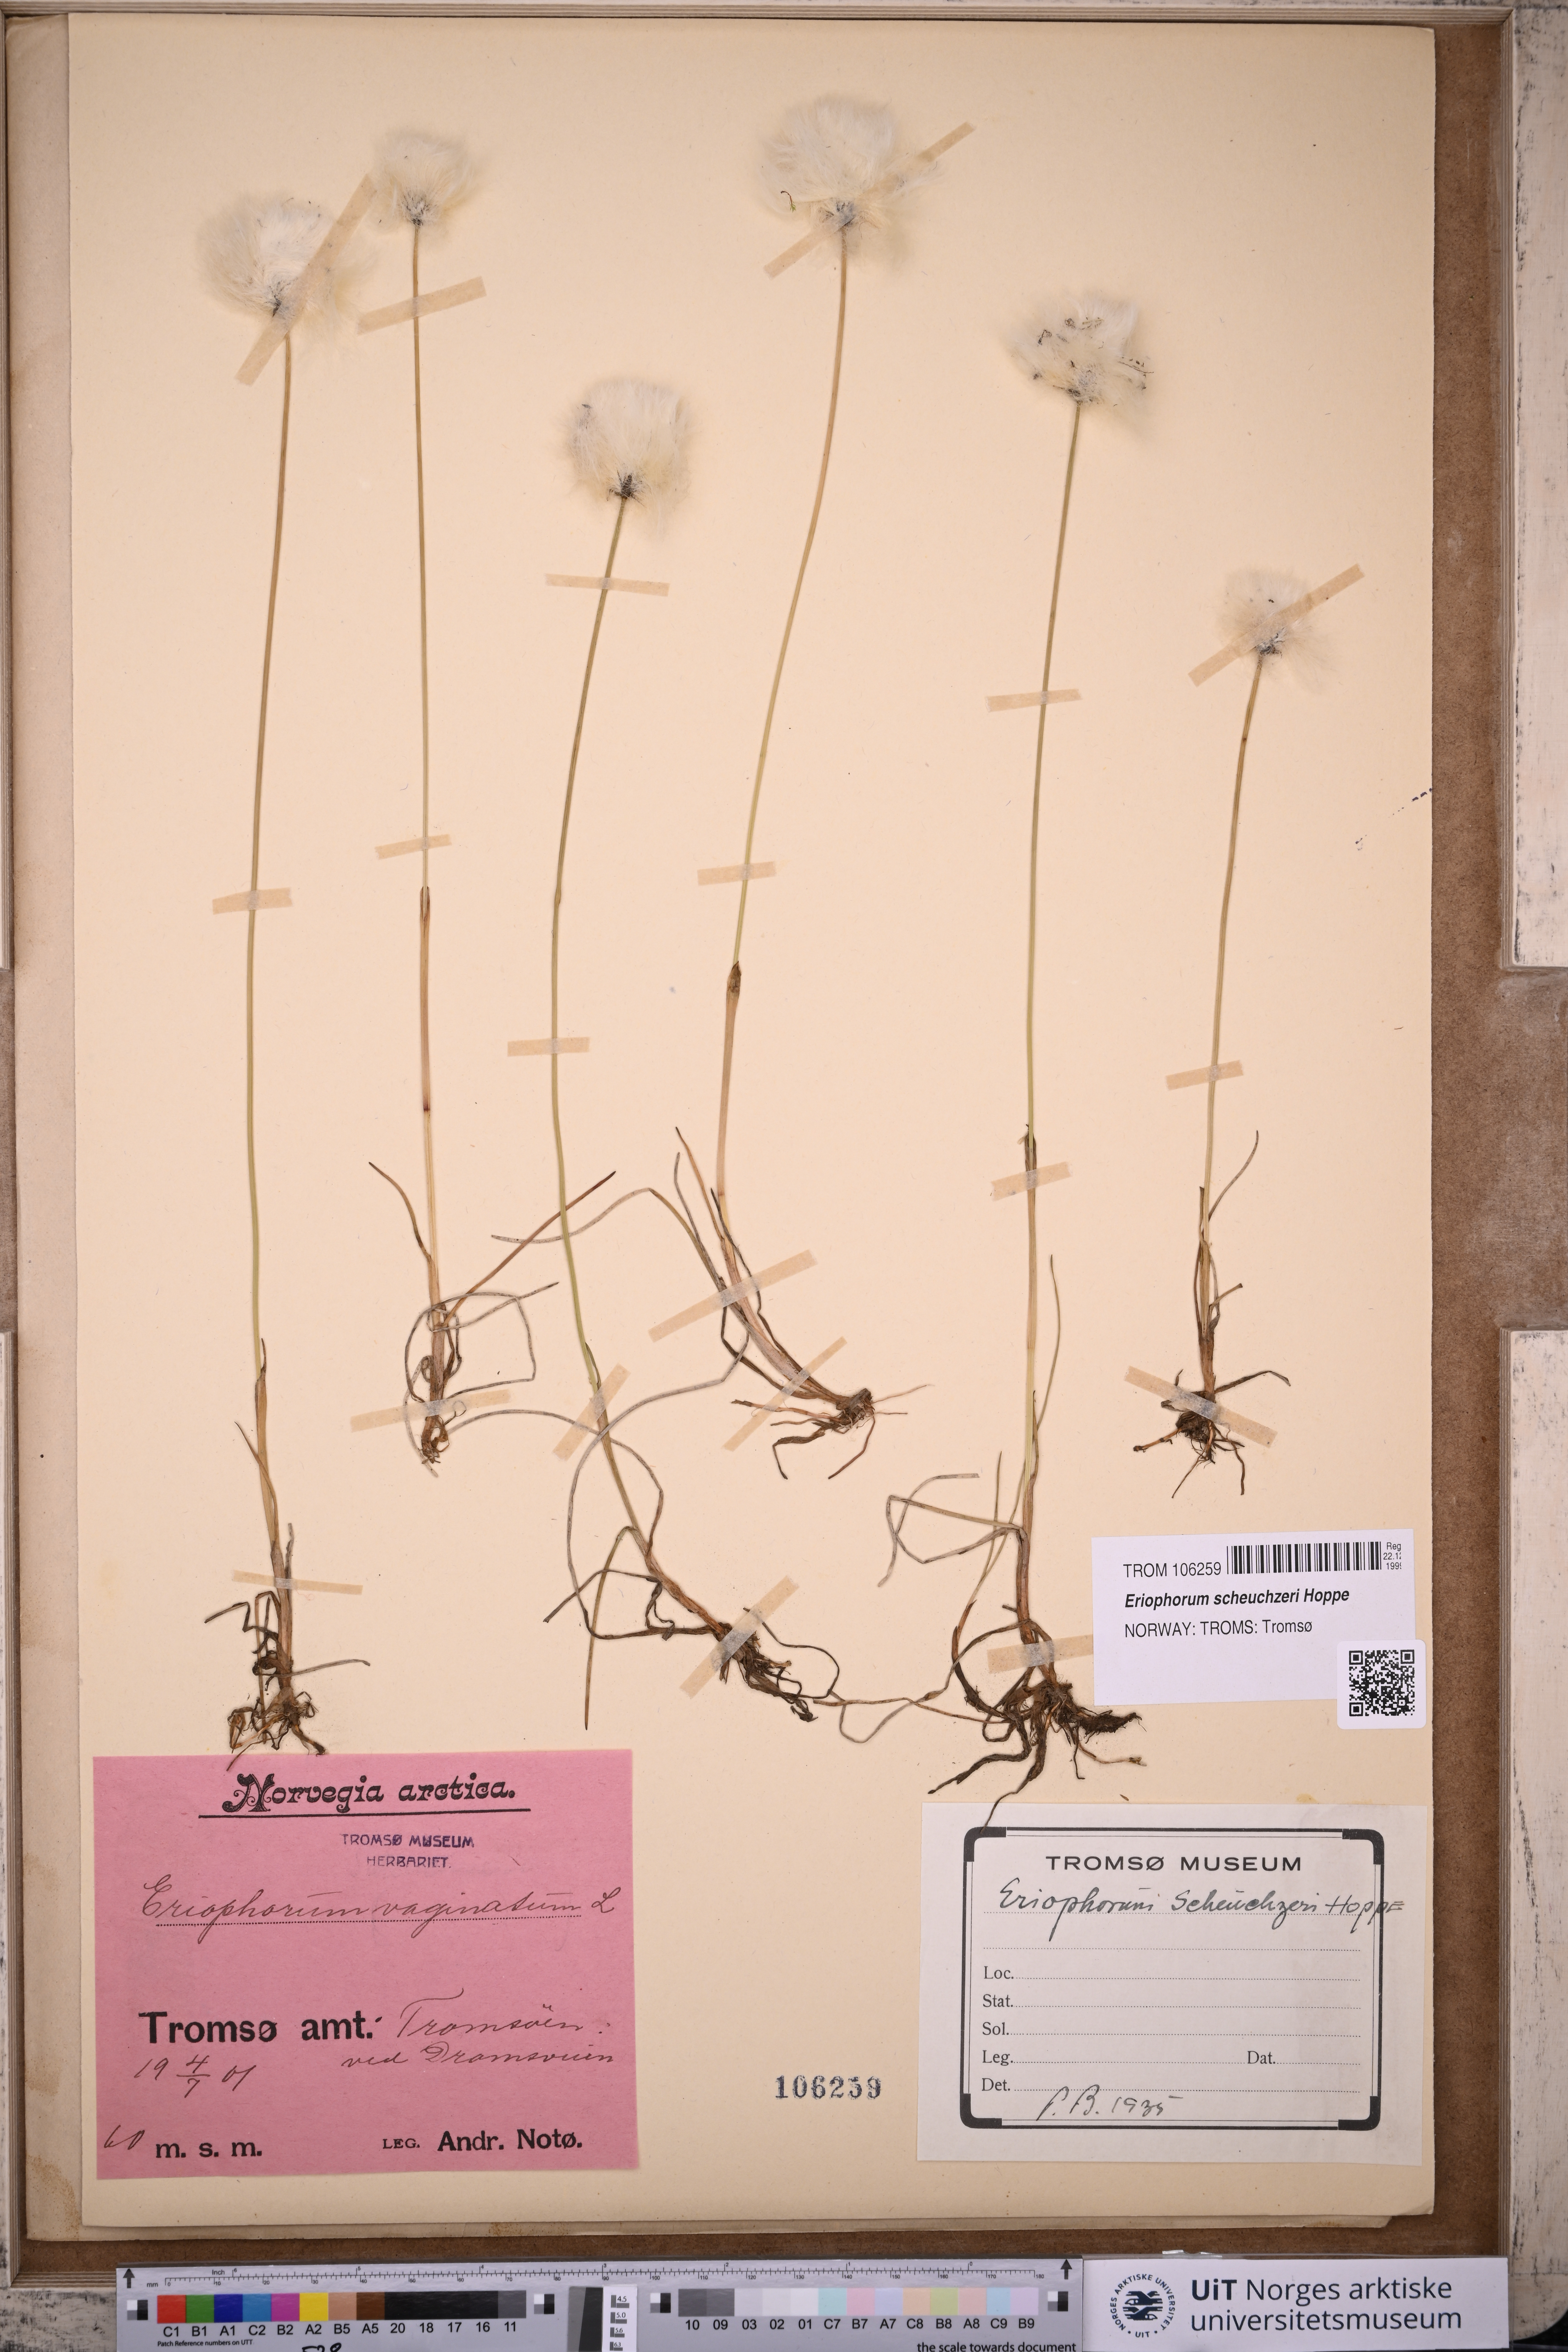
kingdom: Plantae
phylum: Tracheophyta
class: Liliopsida
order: Poales
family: Cyperaceae
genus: Eriophorum
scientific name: Eriophorum scheuchzeri
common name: Scheuchzer's cottongrass
